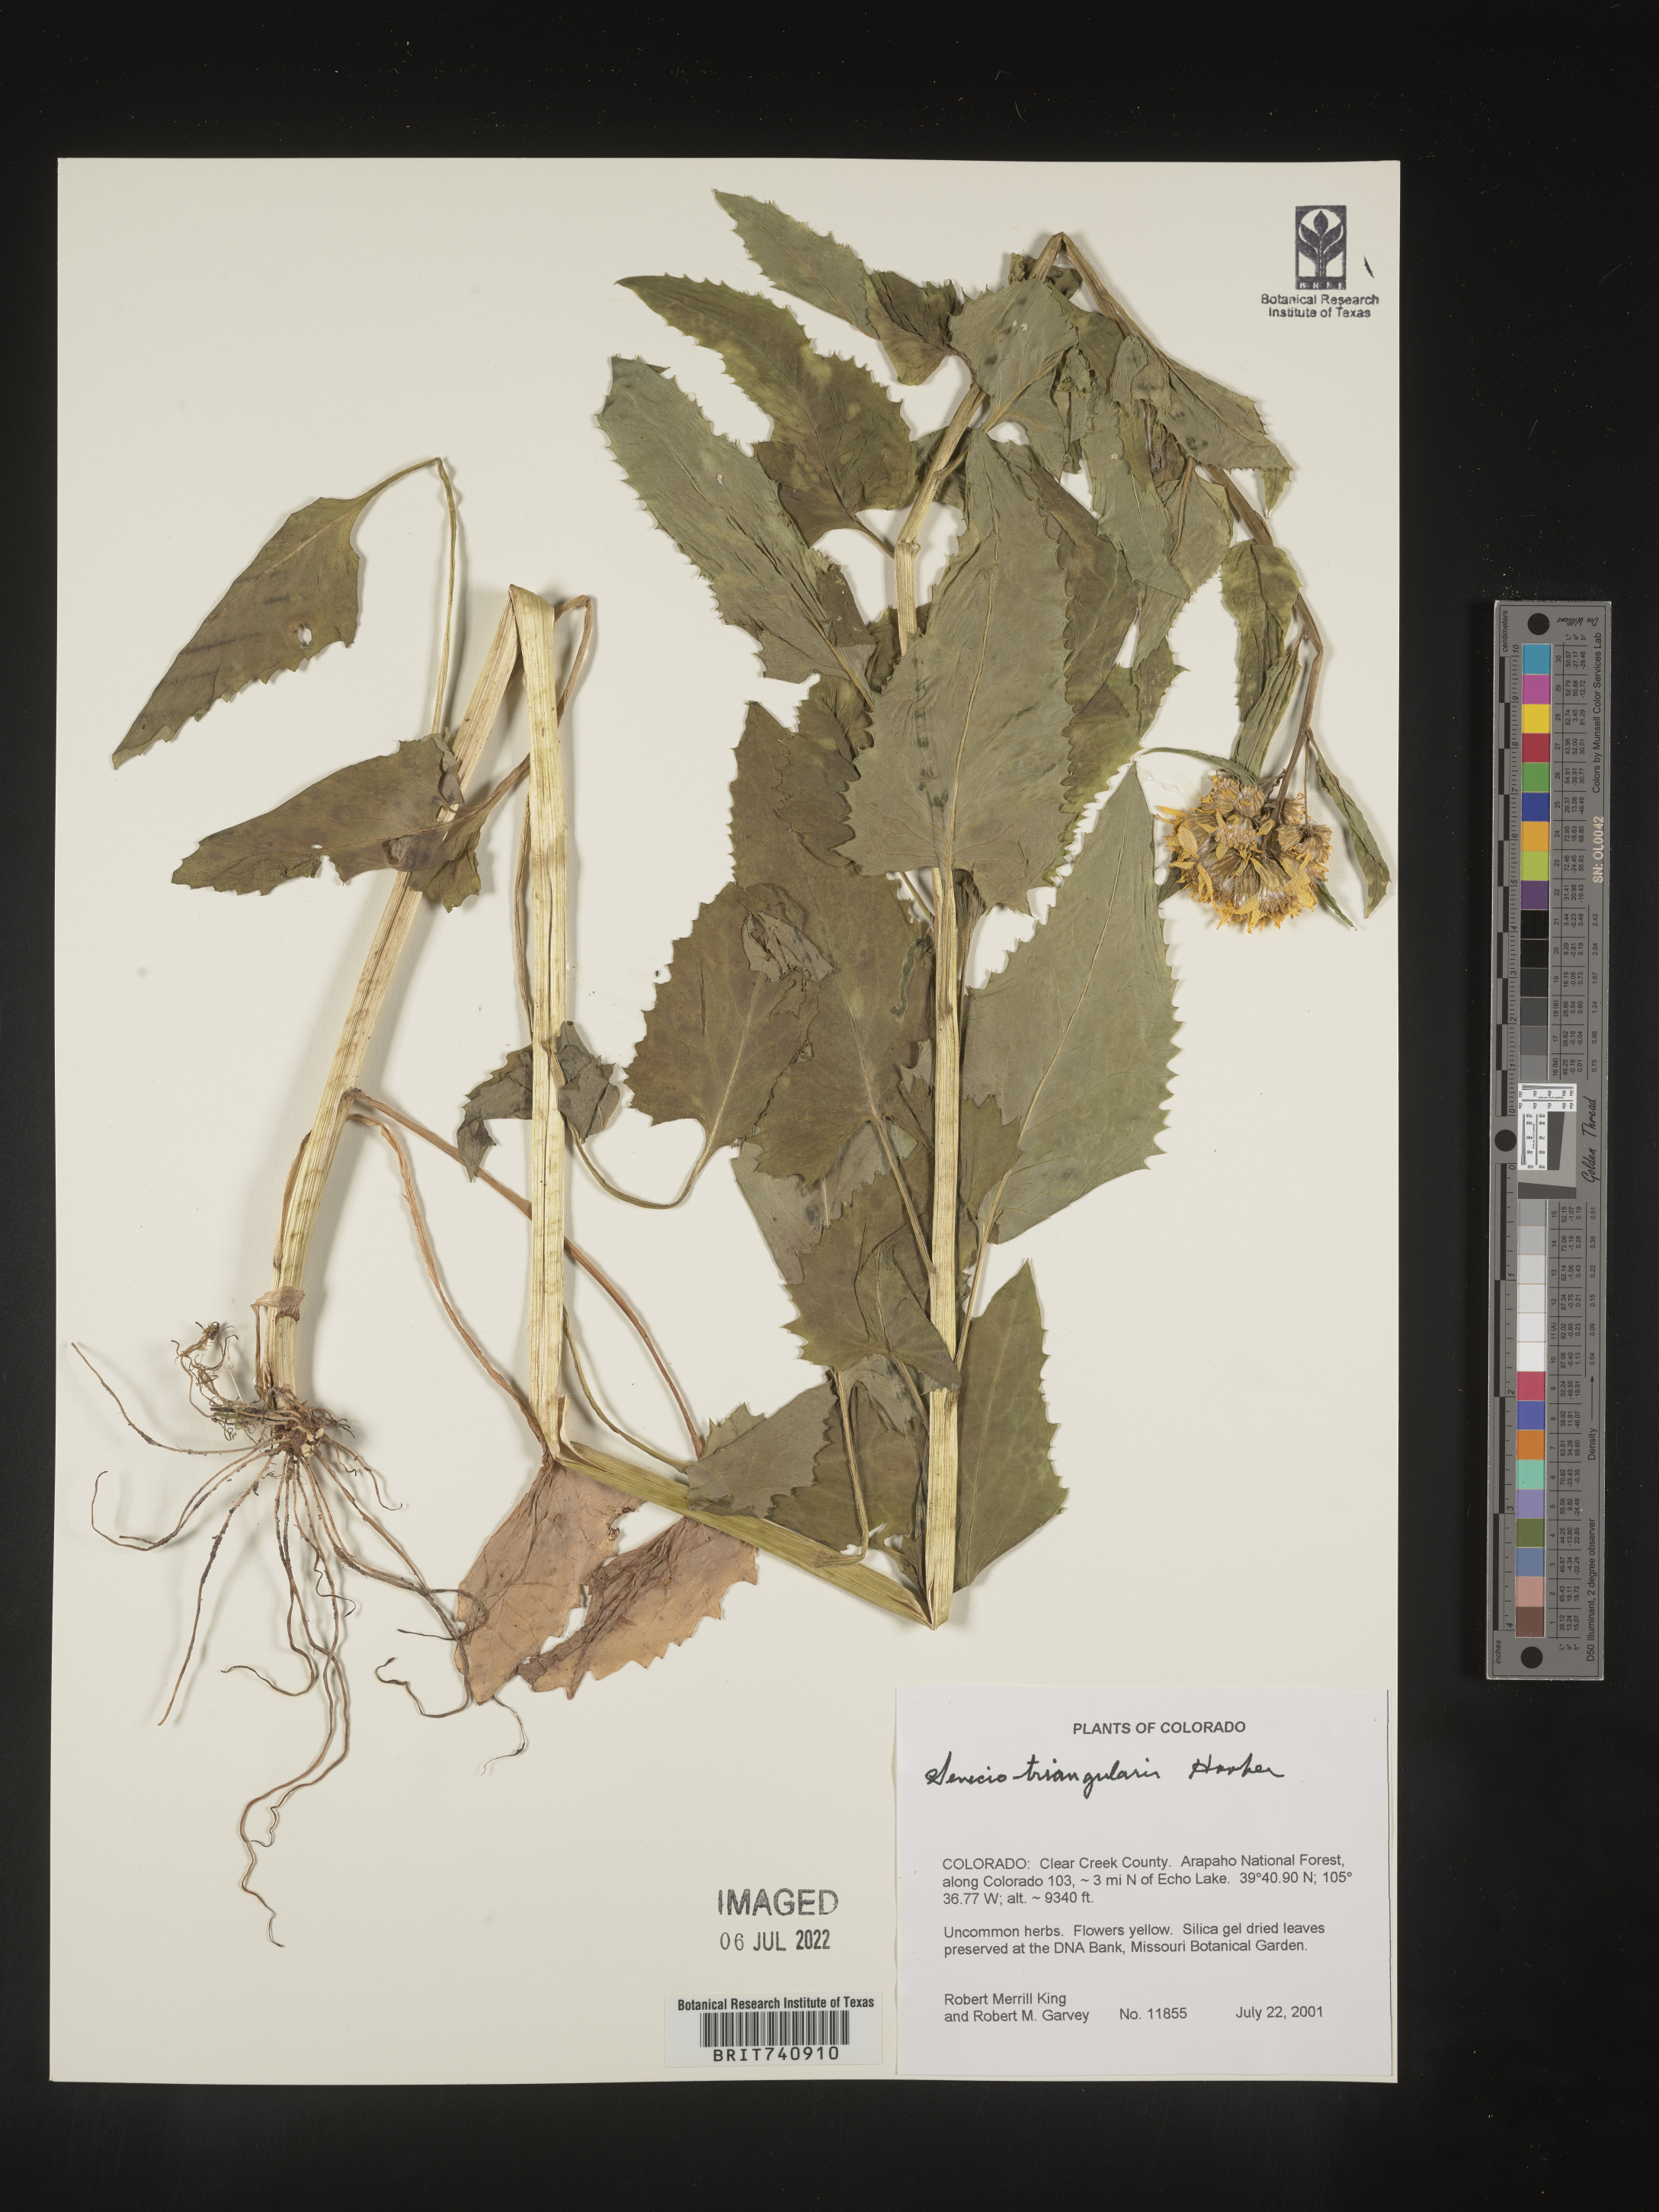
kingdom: Plantae
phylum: Tracheophyta
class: Magnoliopsida
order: Asterales
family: Asteraceae
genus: Senecio
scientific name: Senecio triangularis
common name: Arrowleaf butterweed
